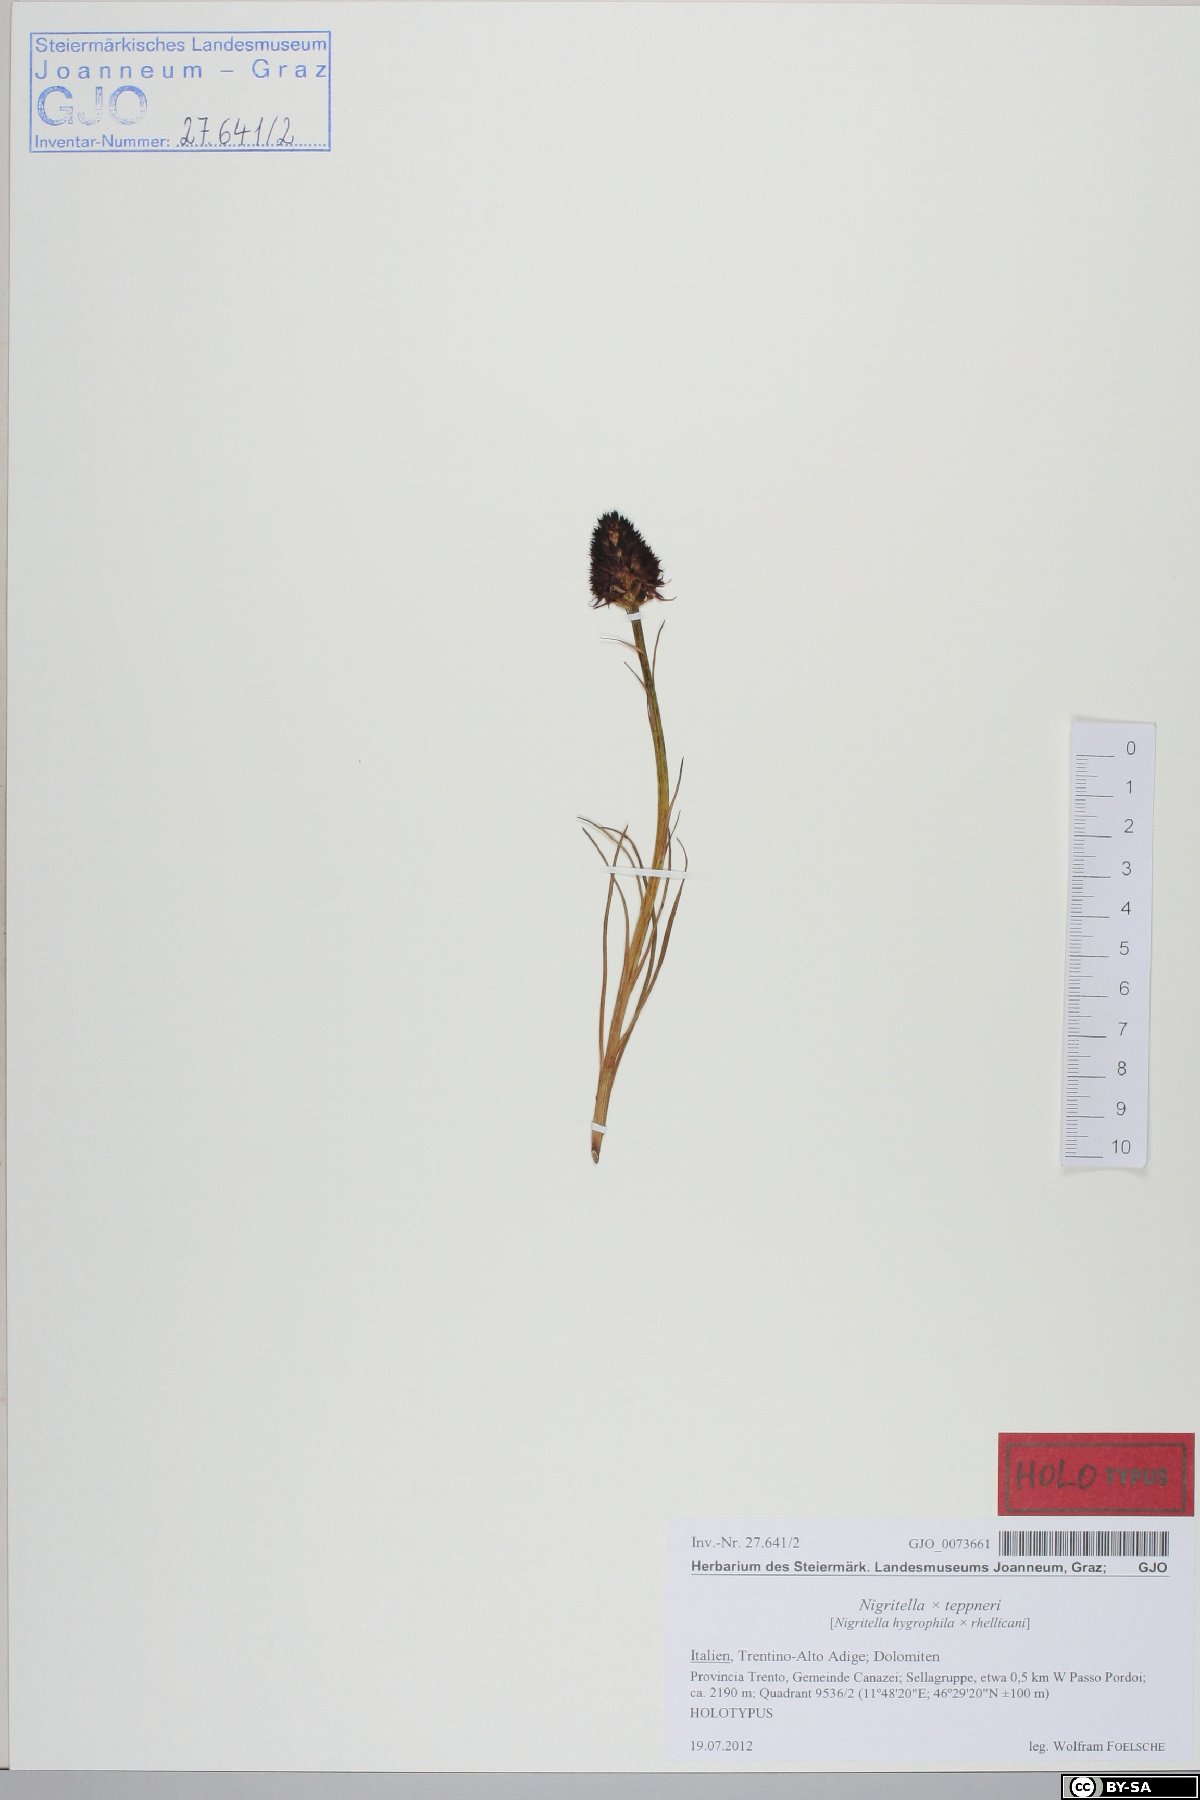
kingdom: Plantae
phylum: Tracheophyta
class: Liliopsida
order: Asparagales
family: Orchidaceae
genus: Gymnadenia
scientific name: Gymnadenia teppneri
